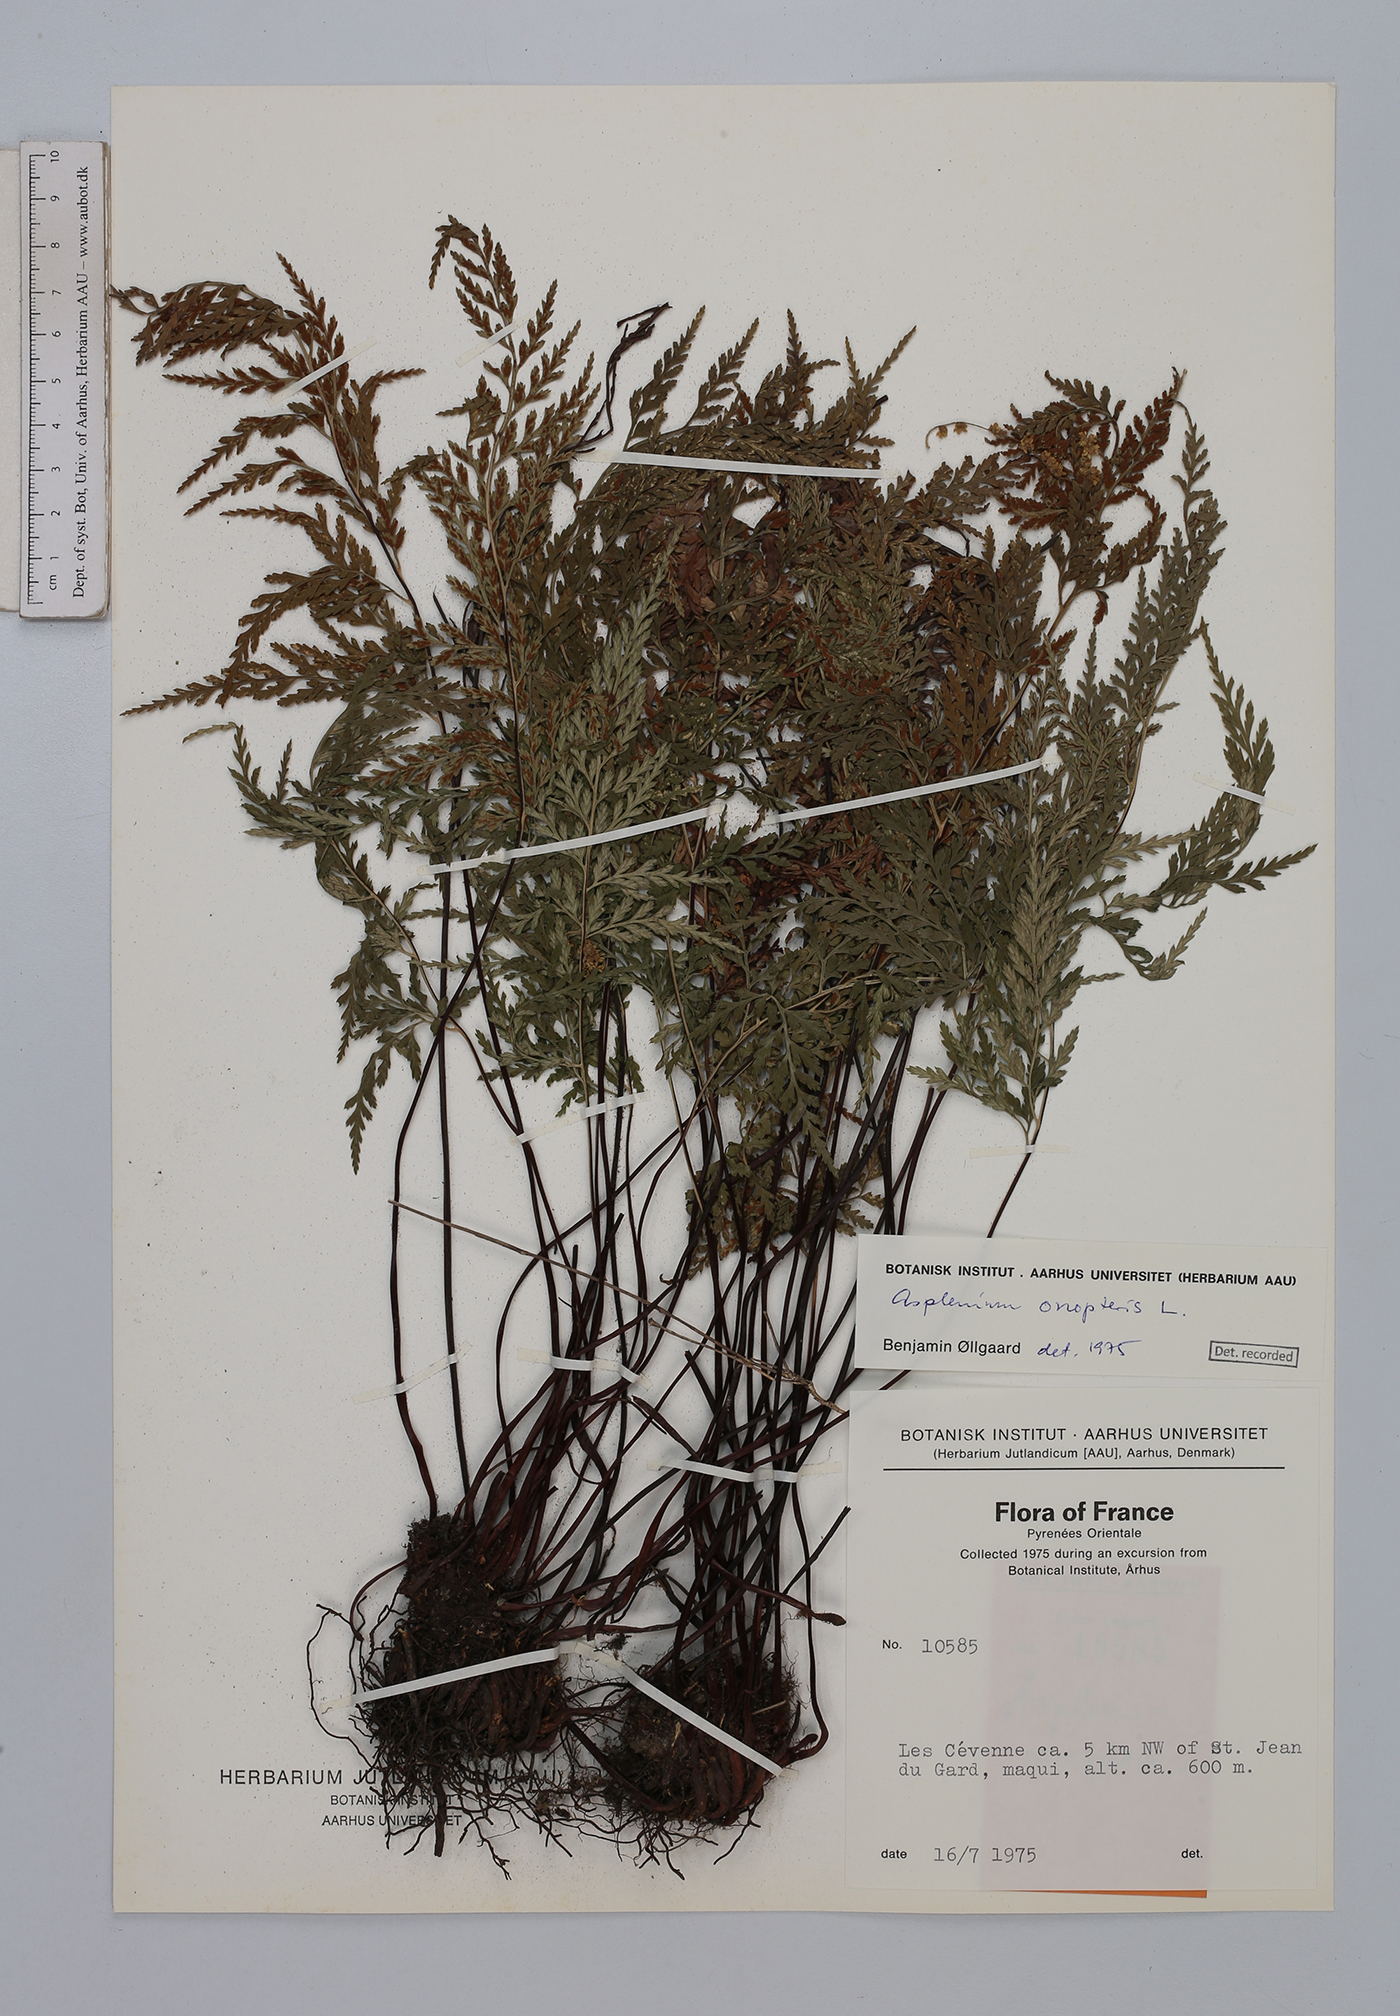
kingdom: Plantae
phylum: Tracheophyta
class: Polypodiopsida
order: Polypodiales
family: Aspleniaceae
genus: Asplenium
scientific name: Asplenium onopteris
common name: Irish spleenwort
